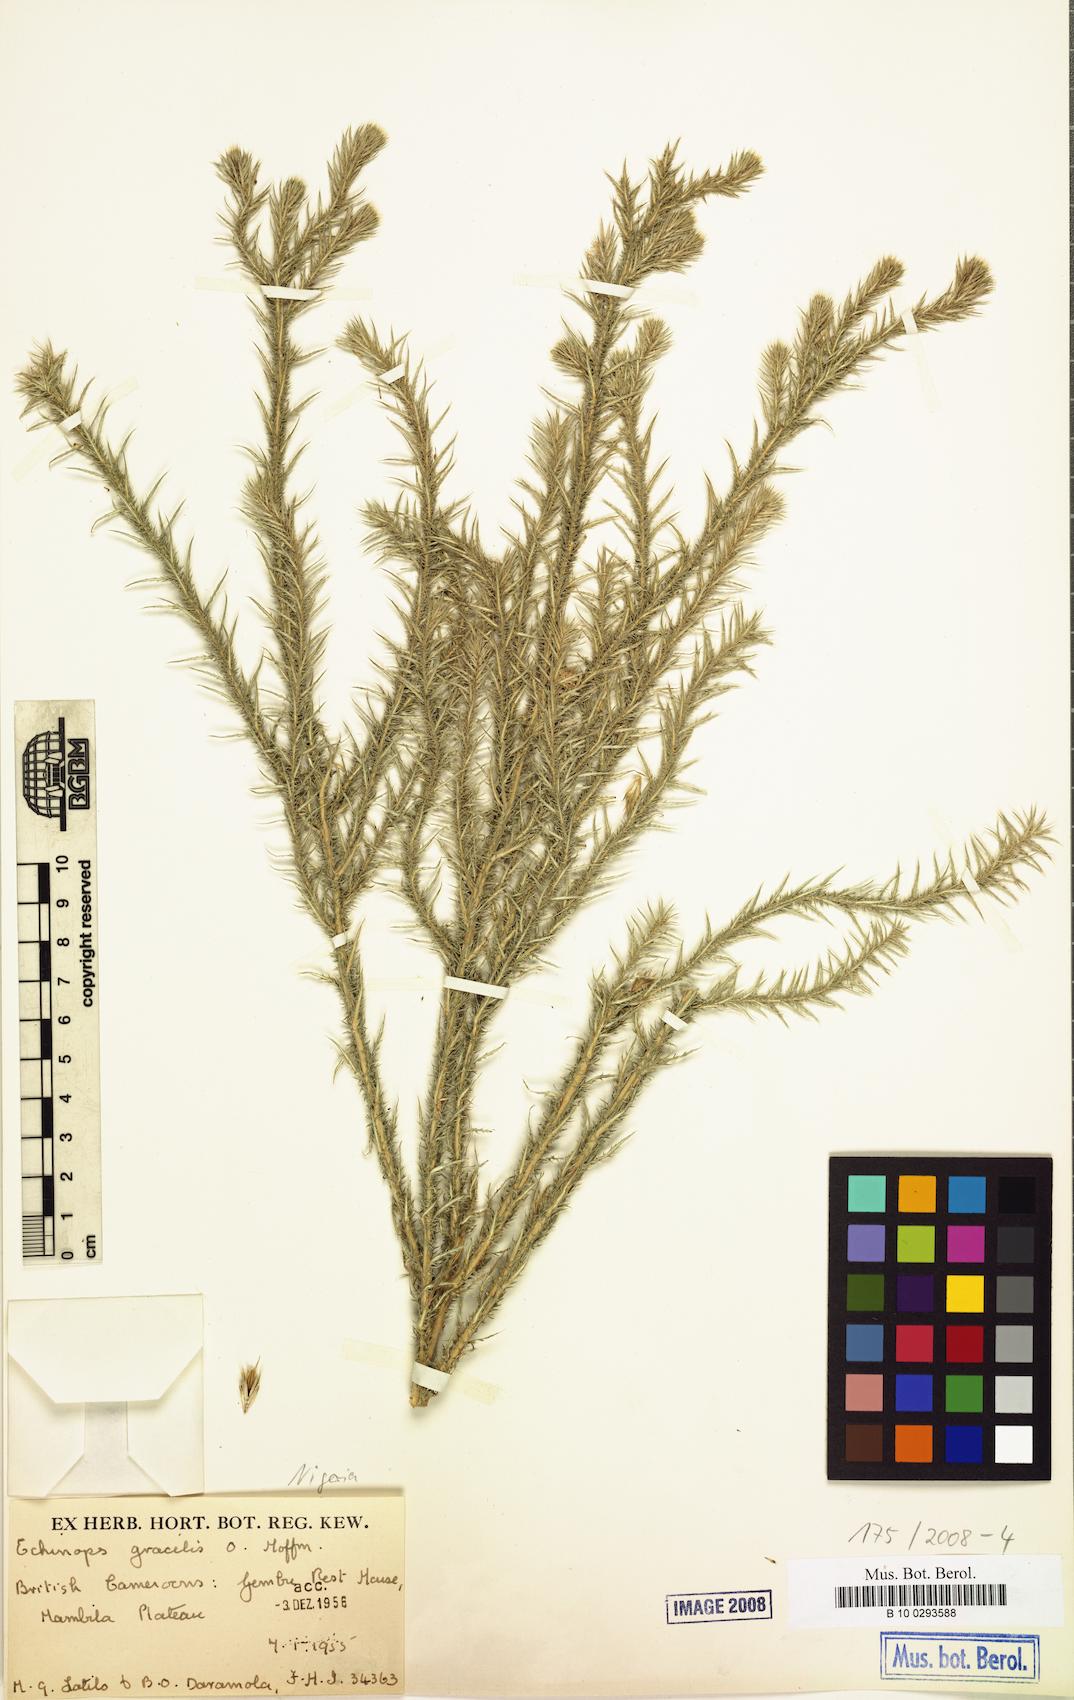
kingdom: Plantae
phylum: Tracheophyta
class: Magnoliopsida
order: Asterales
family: Asteraceae
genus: Echinops
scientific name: Echinops gracilis
